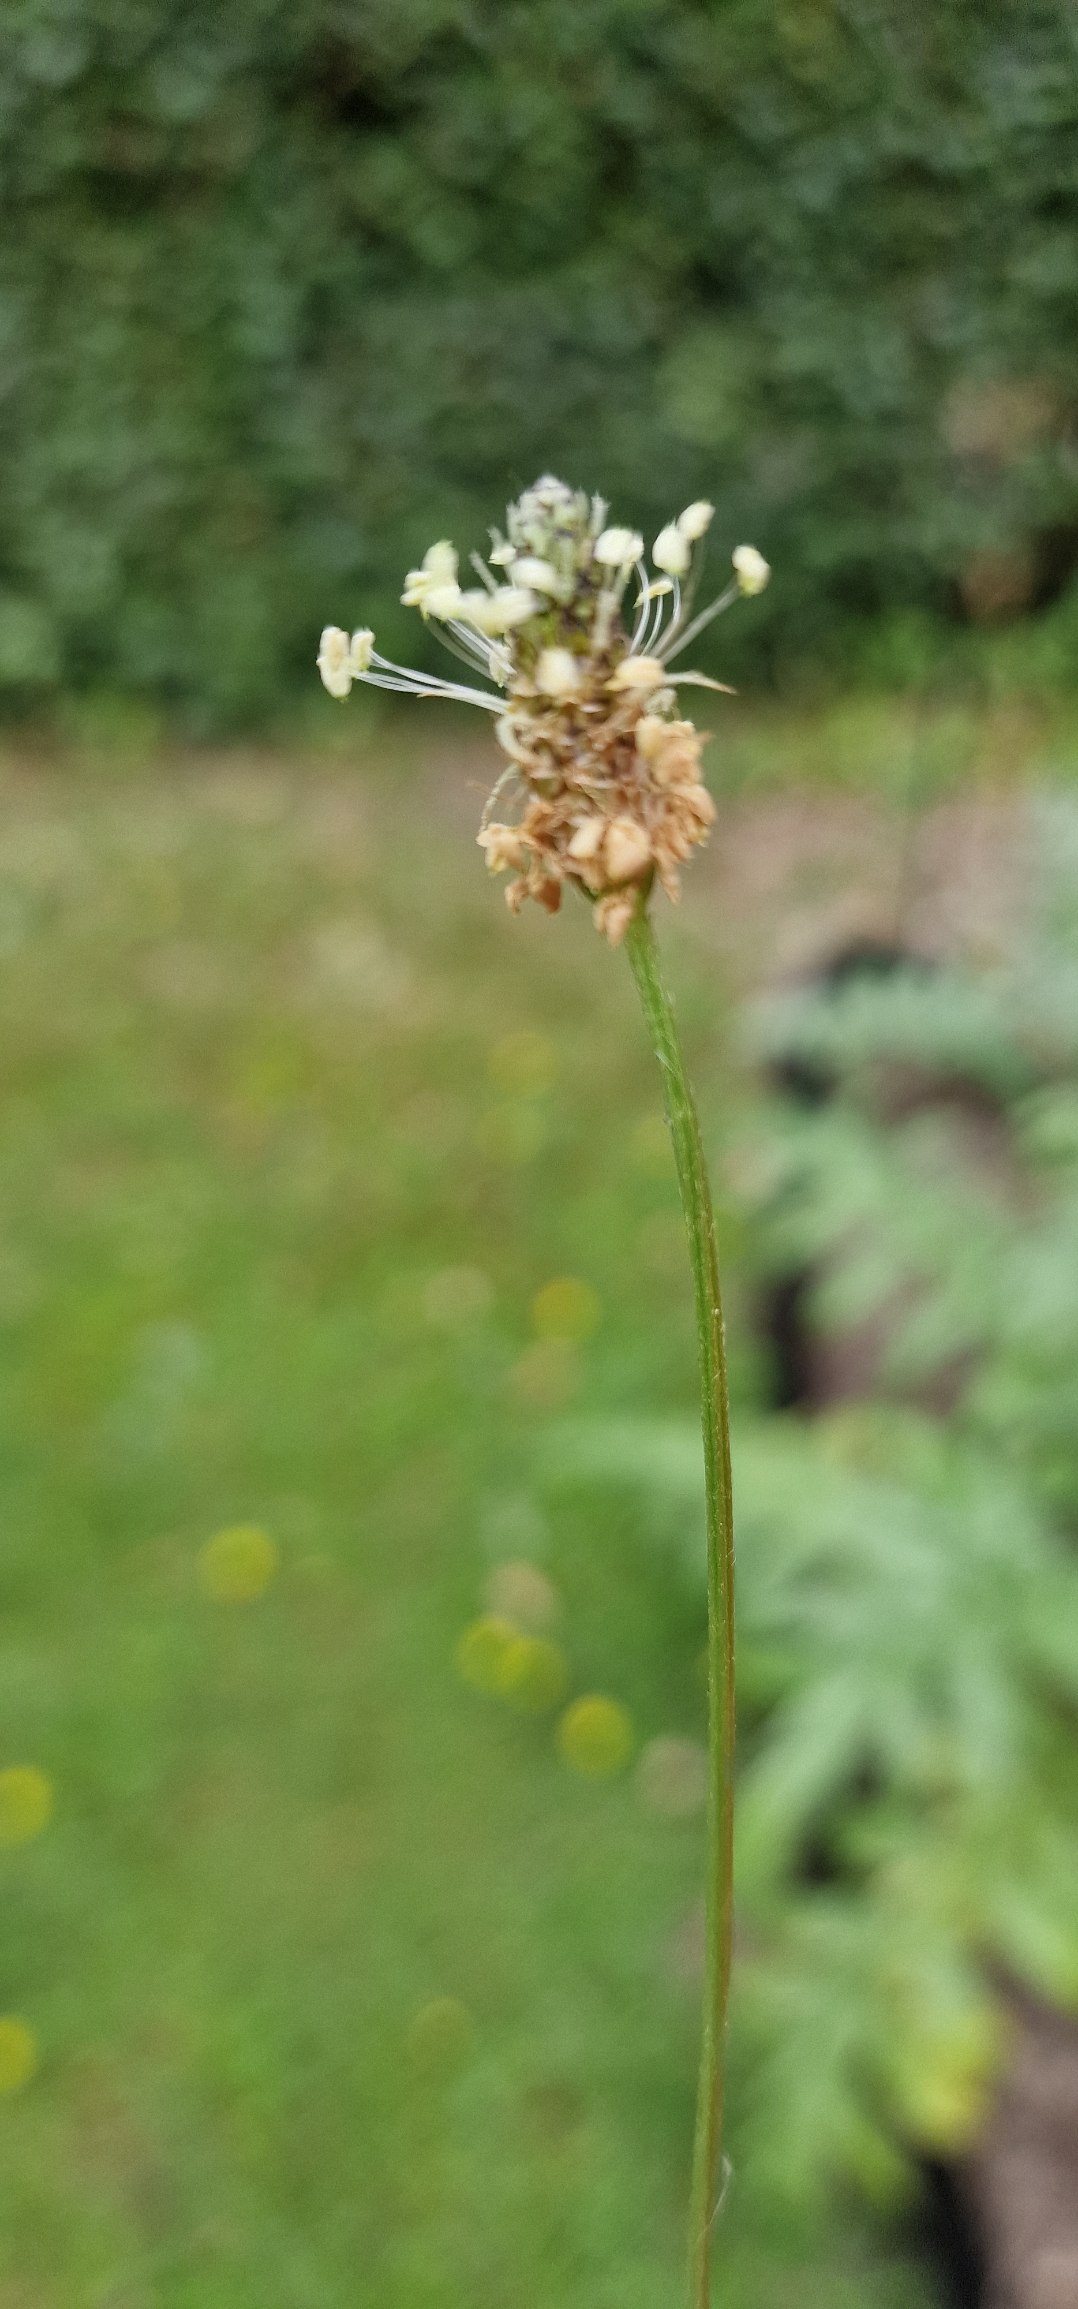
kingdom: Plantae
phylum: Tracheophyta
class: Magnoliopsida
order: Lamiales
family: Plantaginaceae
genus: Plantago
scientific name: Plantago lanceolata
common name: Lancet-vejbred
